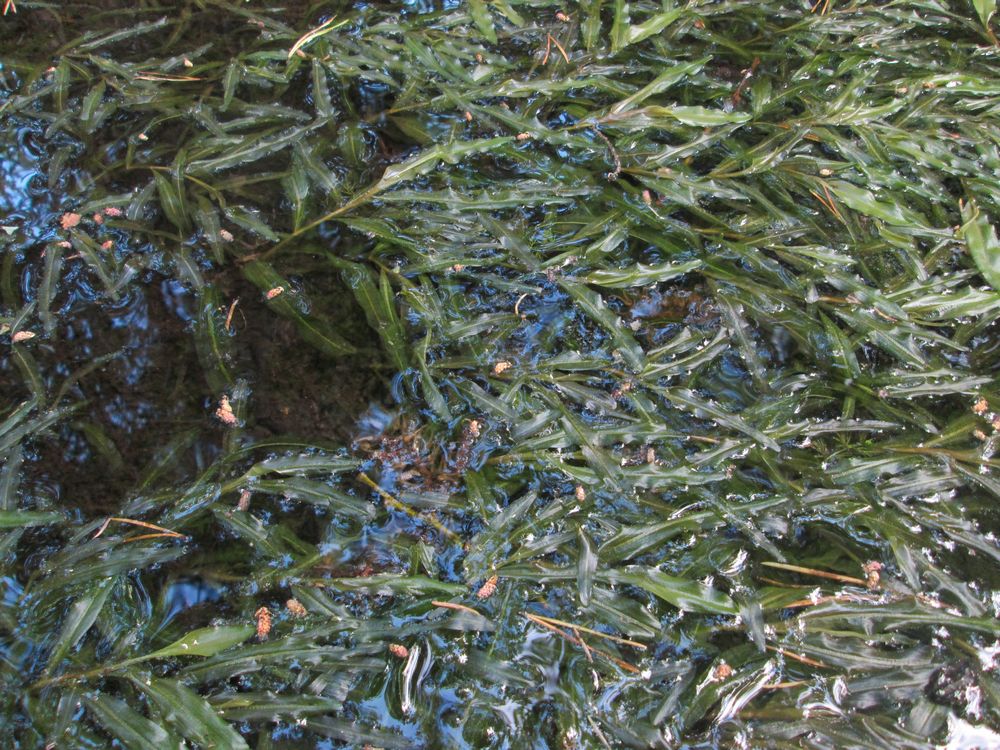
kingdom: Plantae
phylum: Tracheophyta
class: Liliopsida
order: Alismatales
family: Potamogetonaceae
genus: Potamogeton
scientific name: Potamogeton alpinus
